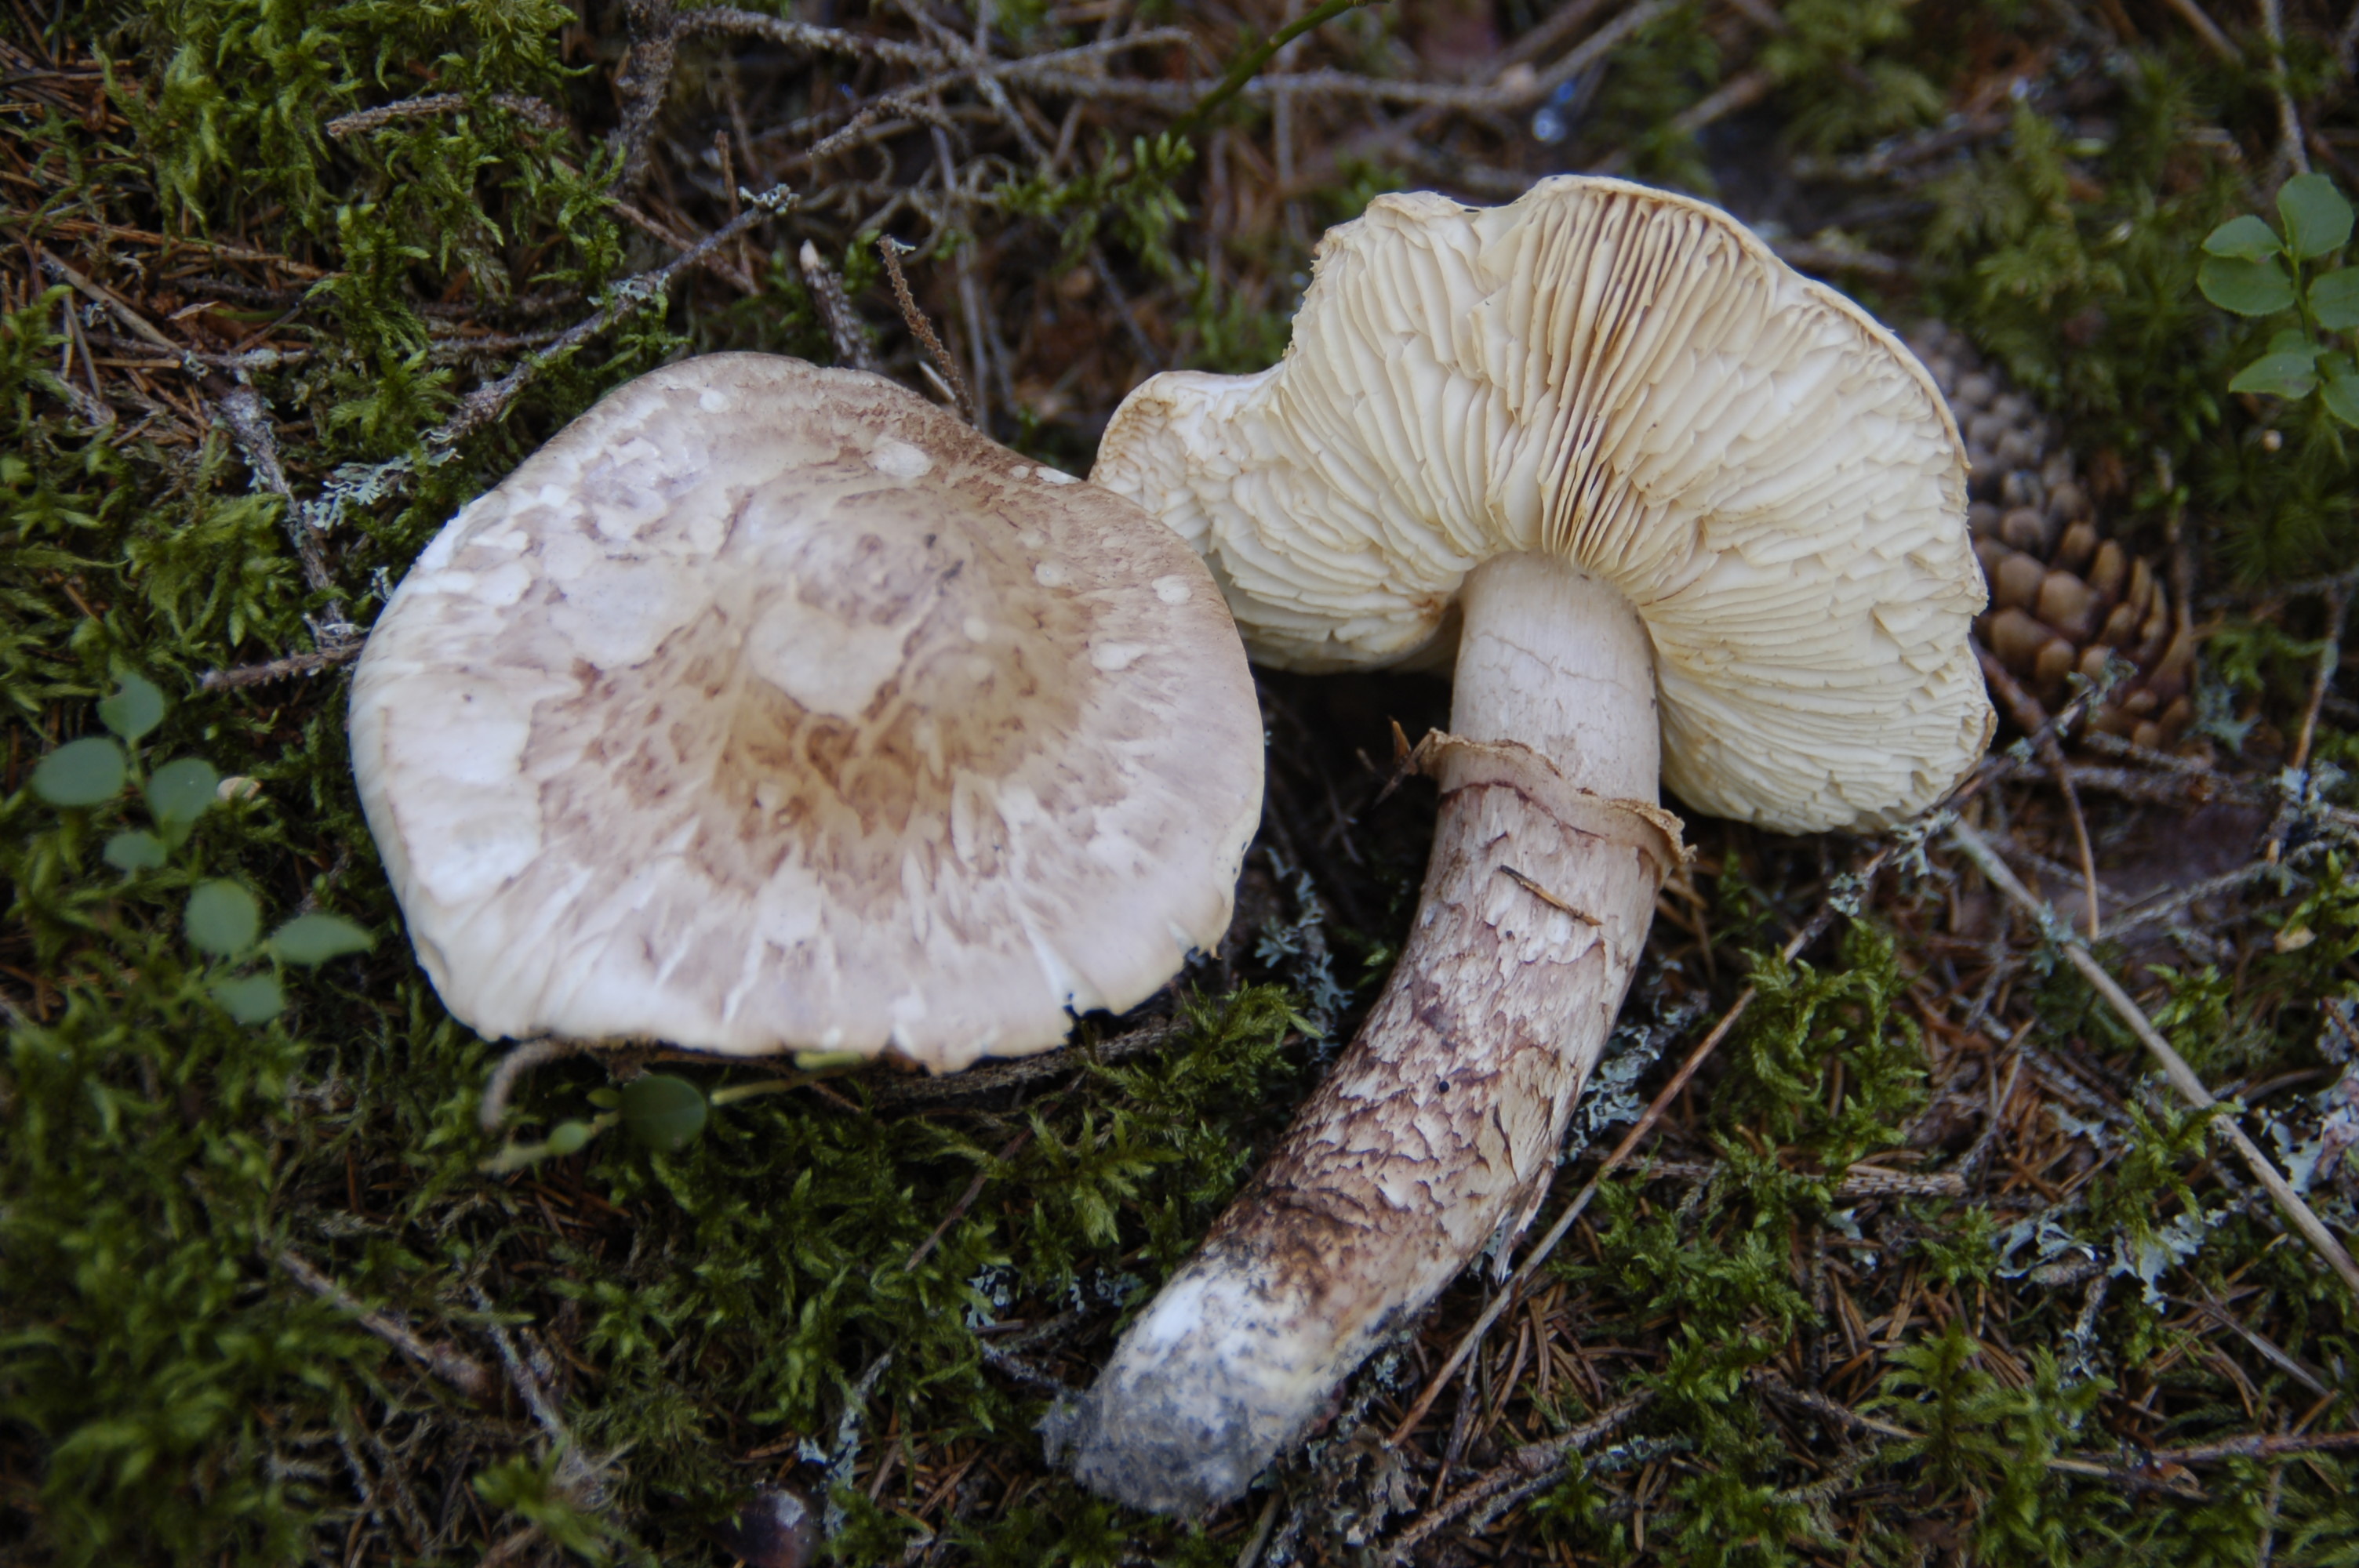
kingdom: Fungi
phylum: Basidiomycota
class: Agaricomycetes
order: Agaricales
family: Tricholomataceae
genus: Tricholoma
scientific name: Tricholoma dulciolens
